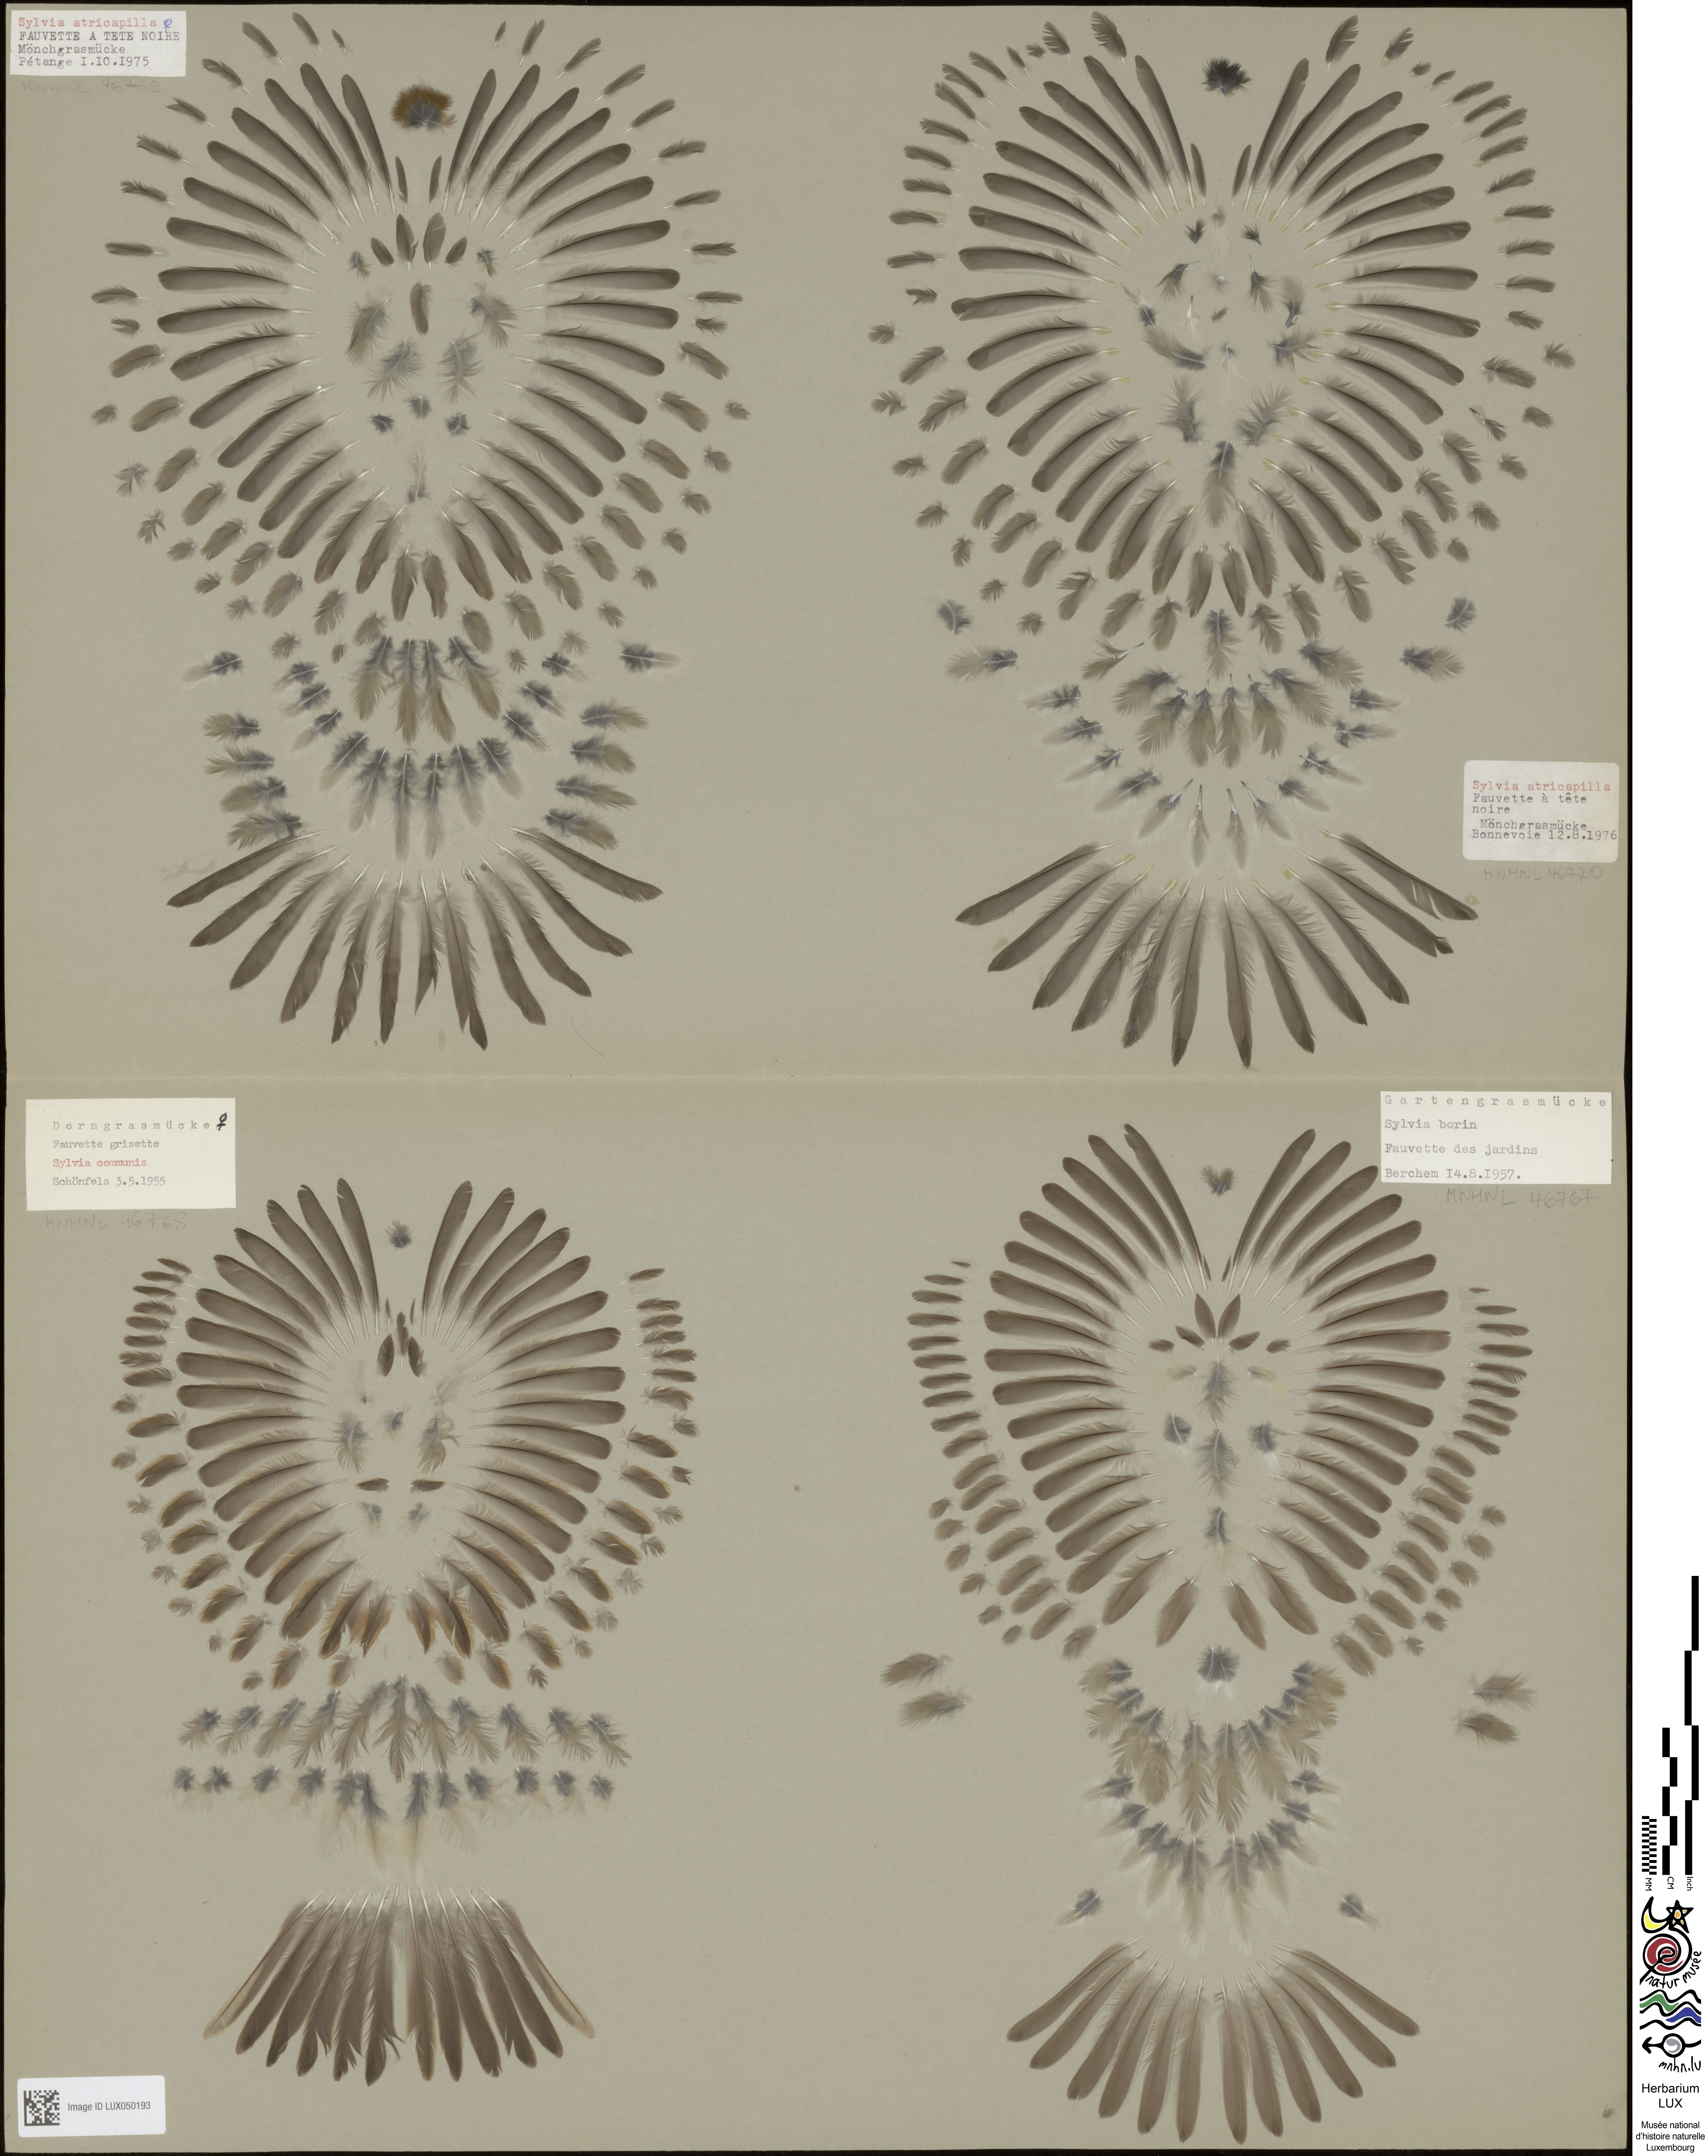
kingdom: Animalia
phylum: Chordata
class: Aves
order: Passeriformes
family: Sylviidae
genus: Sylvia
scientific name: Sylvia borin
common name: Garden warbler
